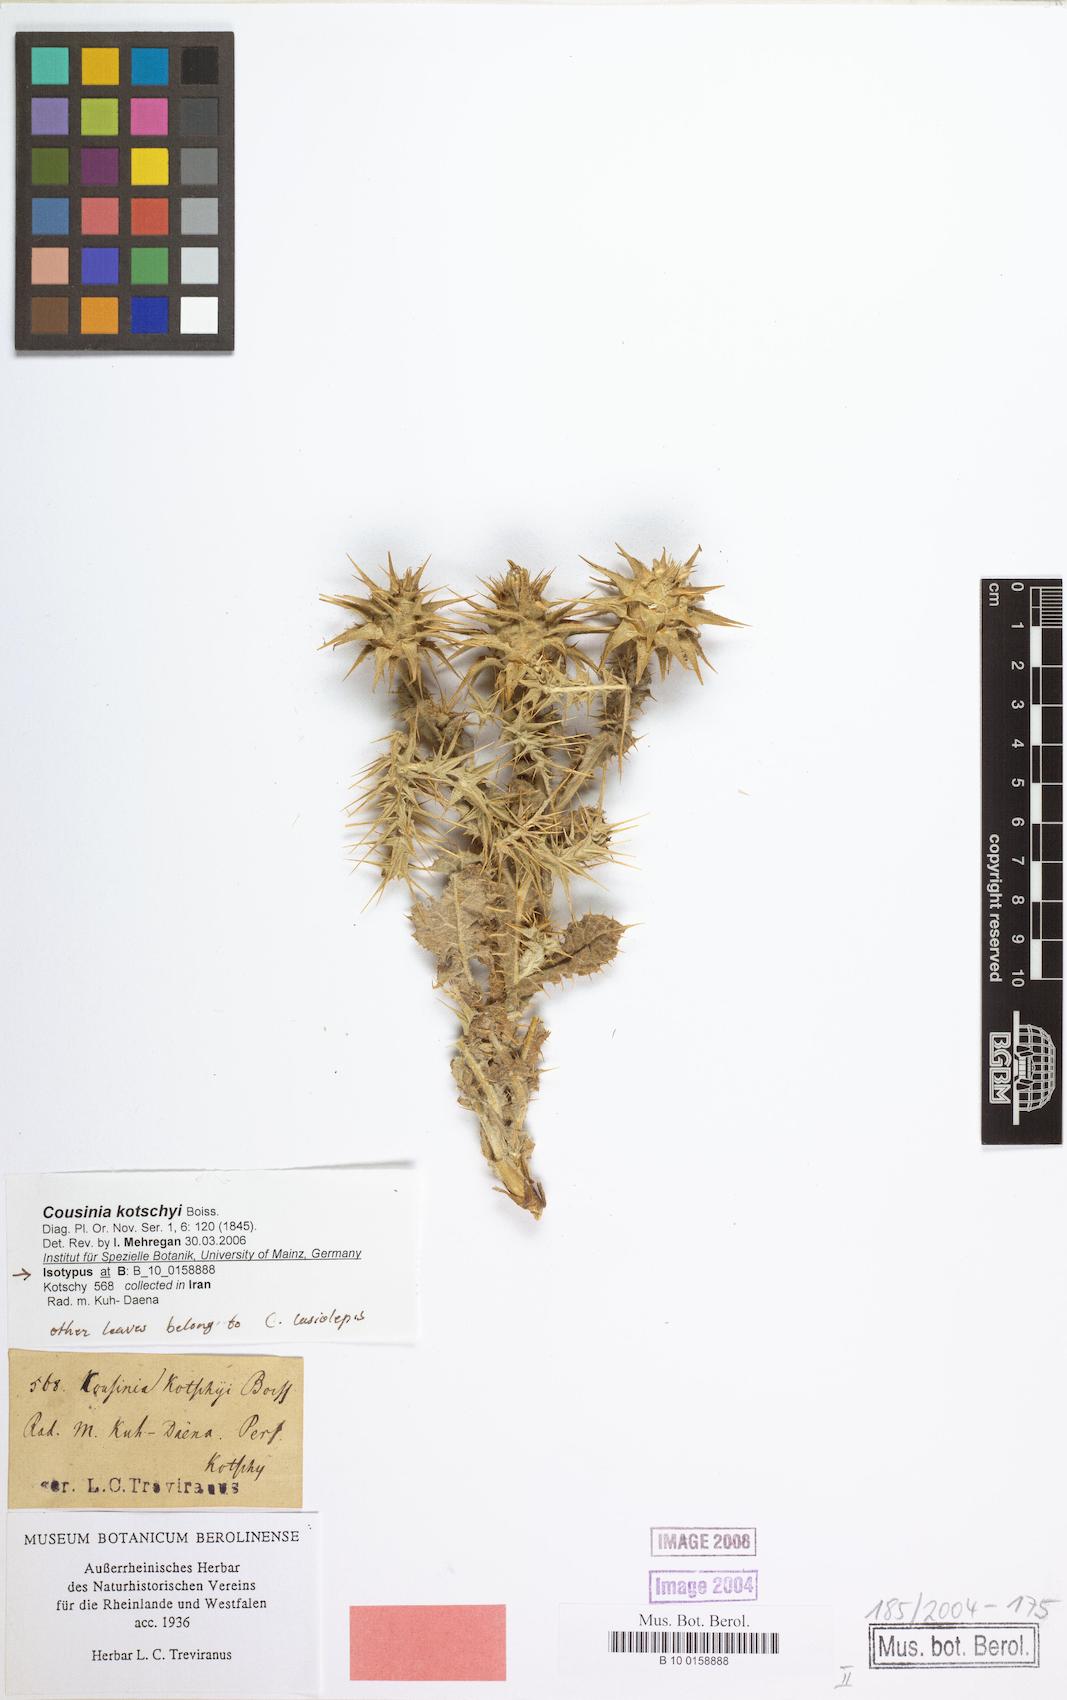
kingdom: Plantae
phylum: Tracheophyta
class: Magnoliopsida
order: Asterales
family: Asteraceae
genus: Cousinia
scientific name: Cousinia kotschyi
